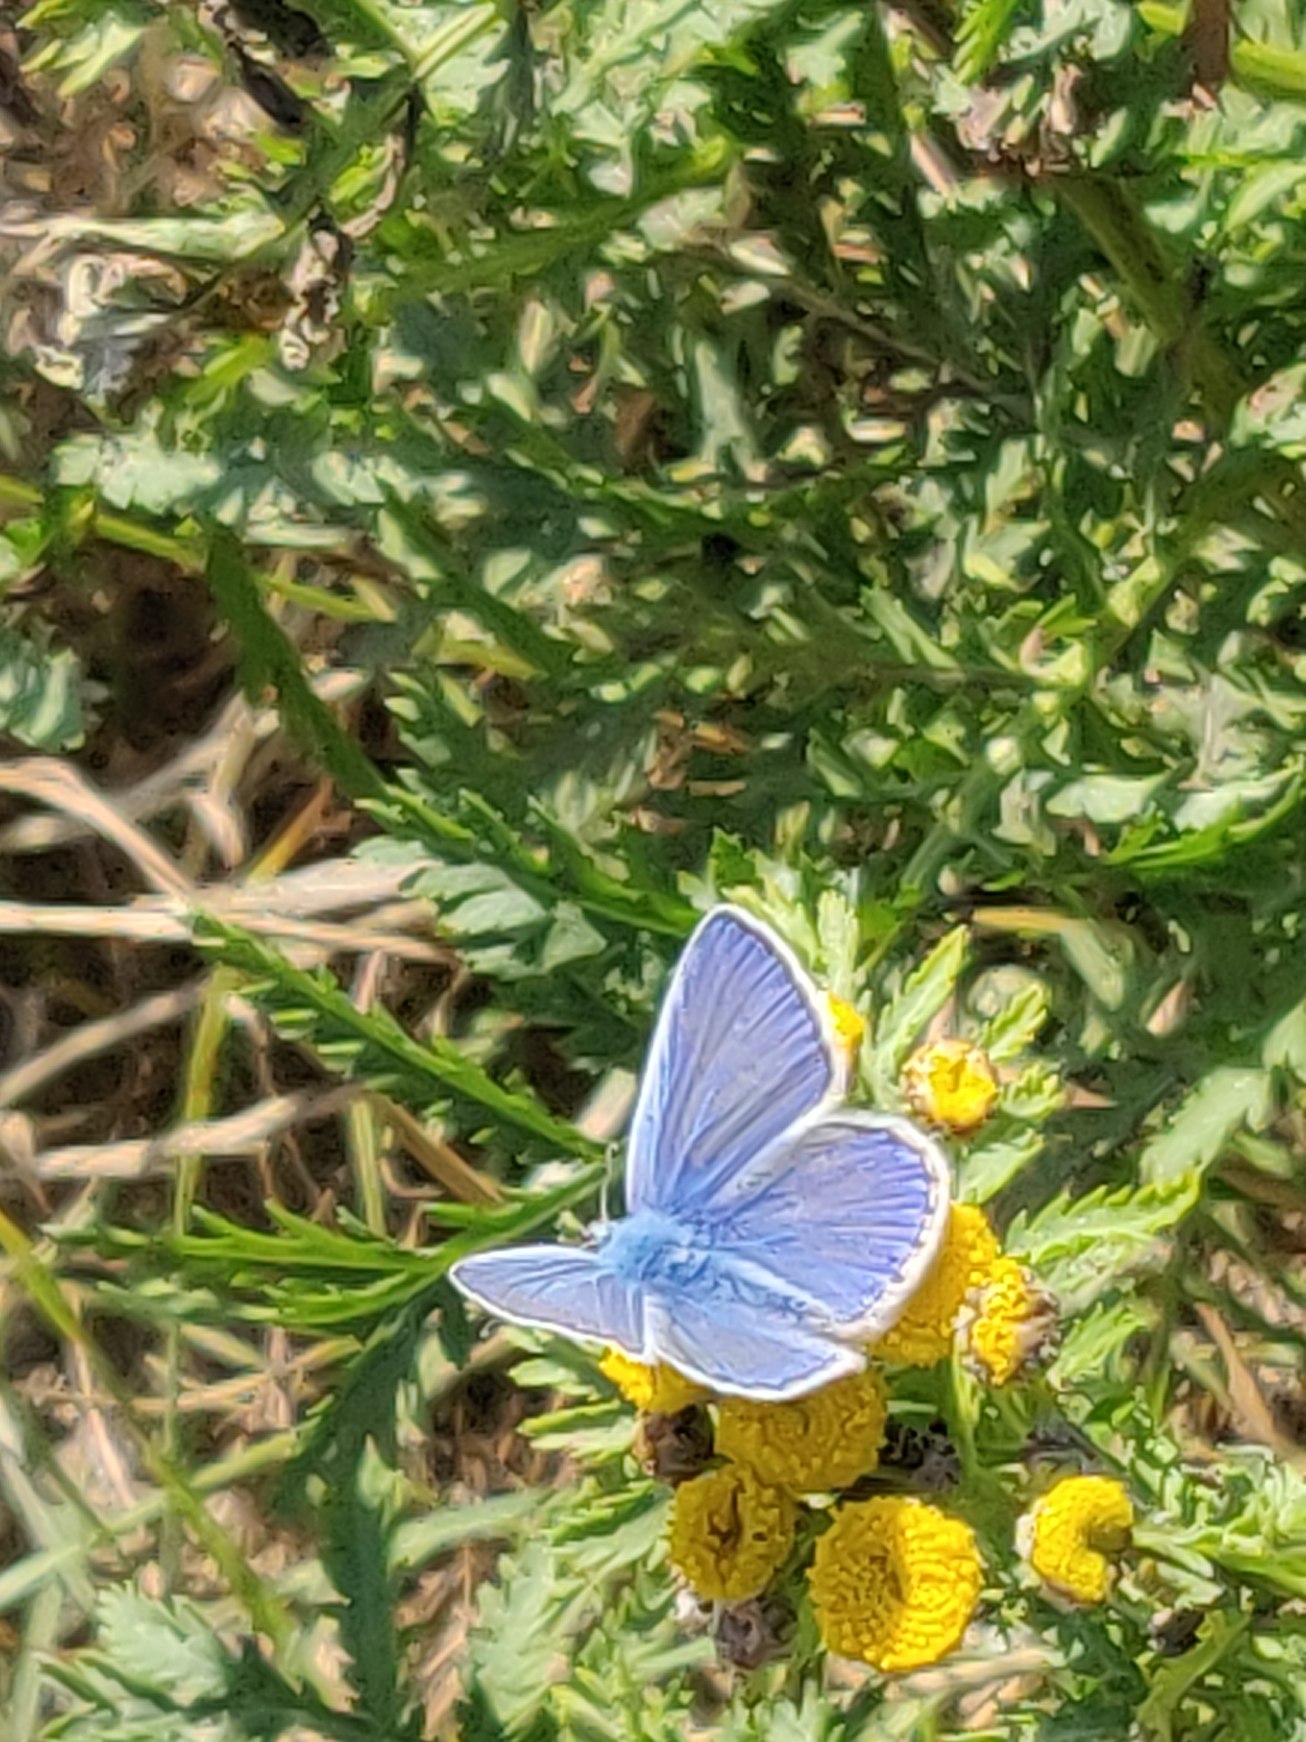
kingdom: Animalia
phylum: Arthropoda
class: Insecta
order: Lepidoptera
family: Lycaenidae
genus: Polyommatus
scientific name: Polyommatus icarus
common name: Almindelig blåfugl
